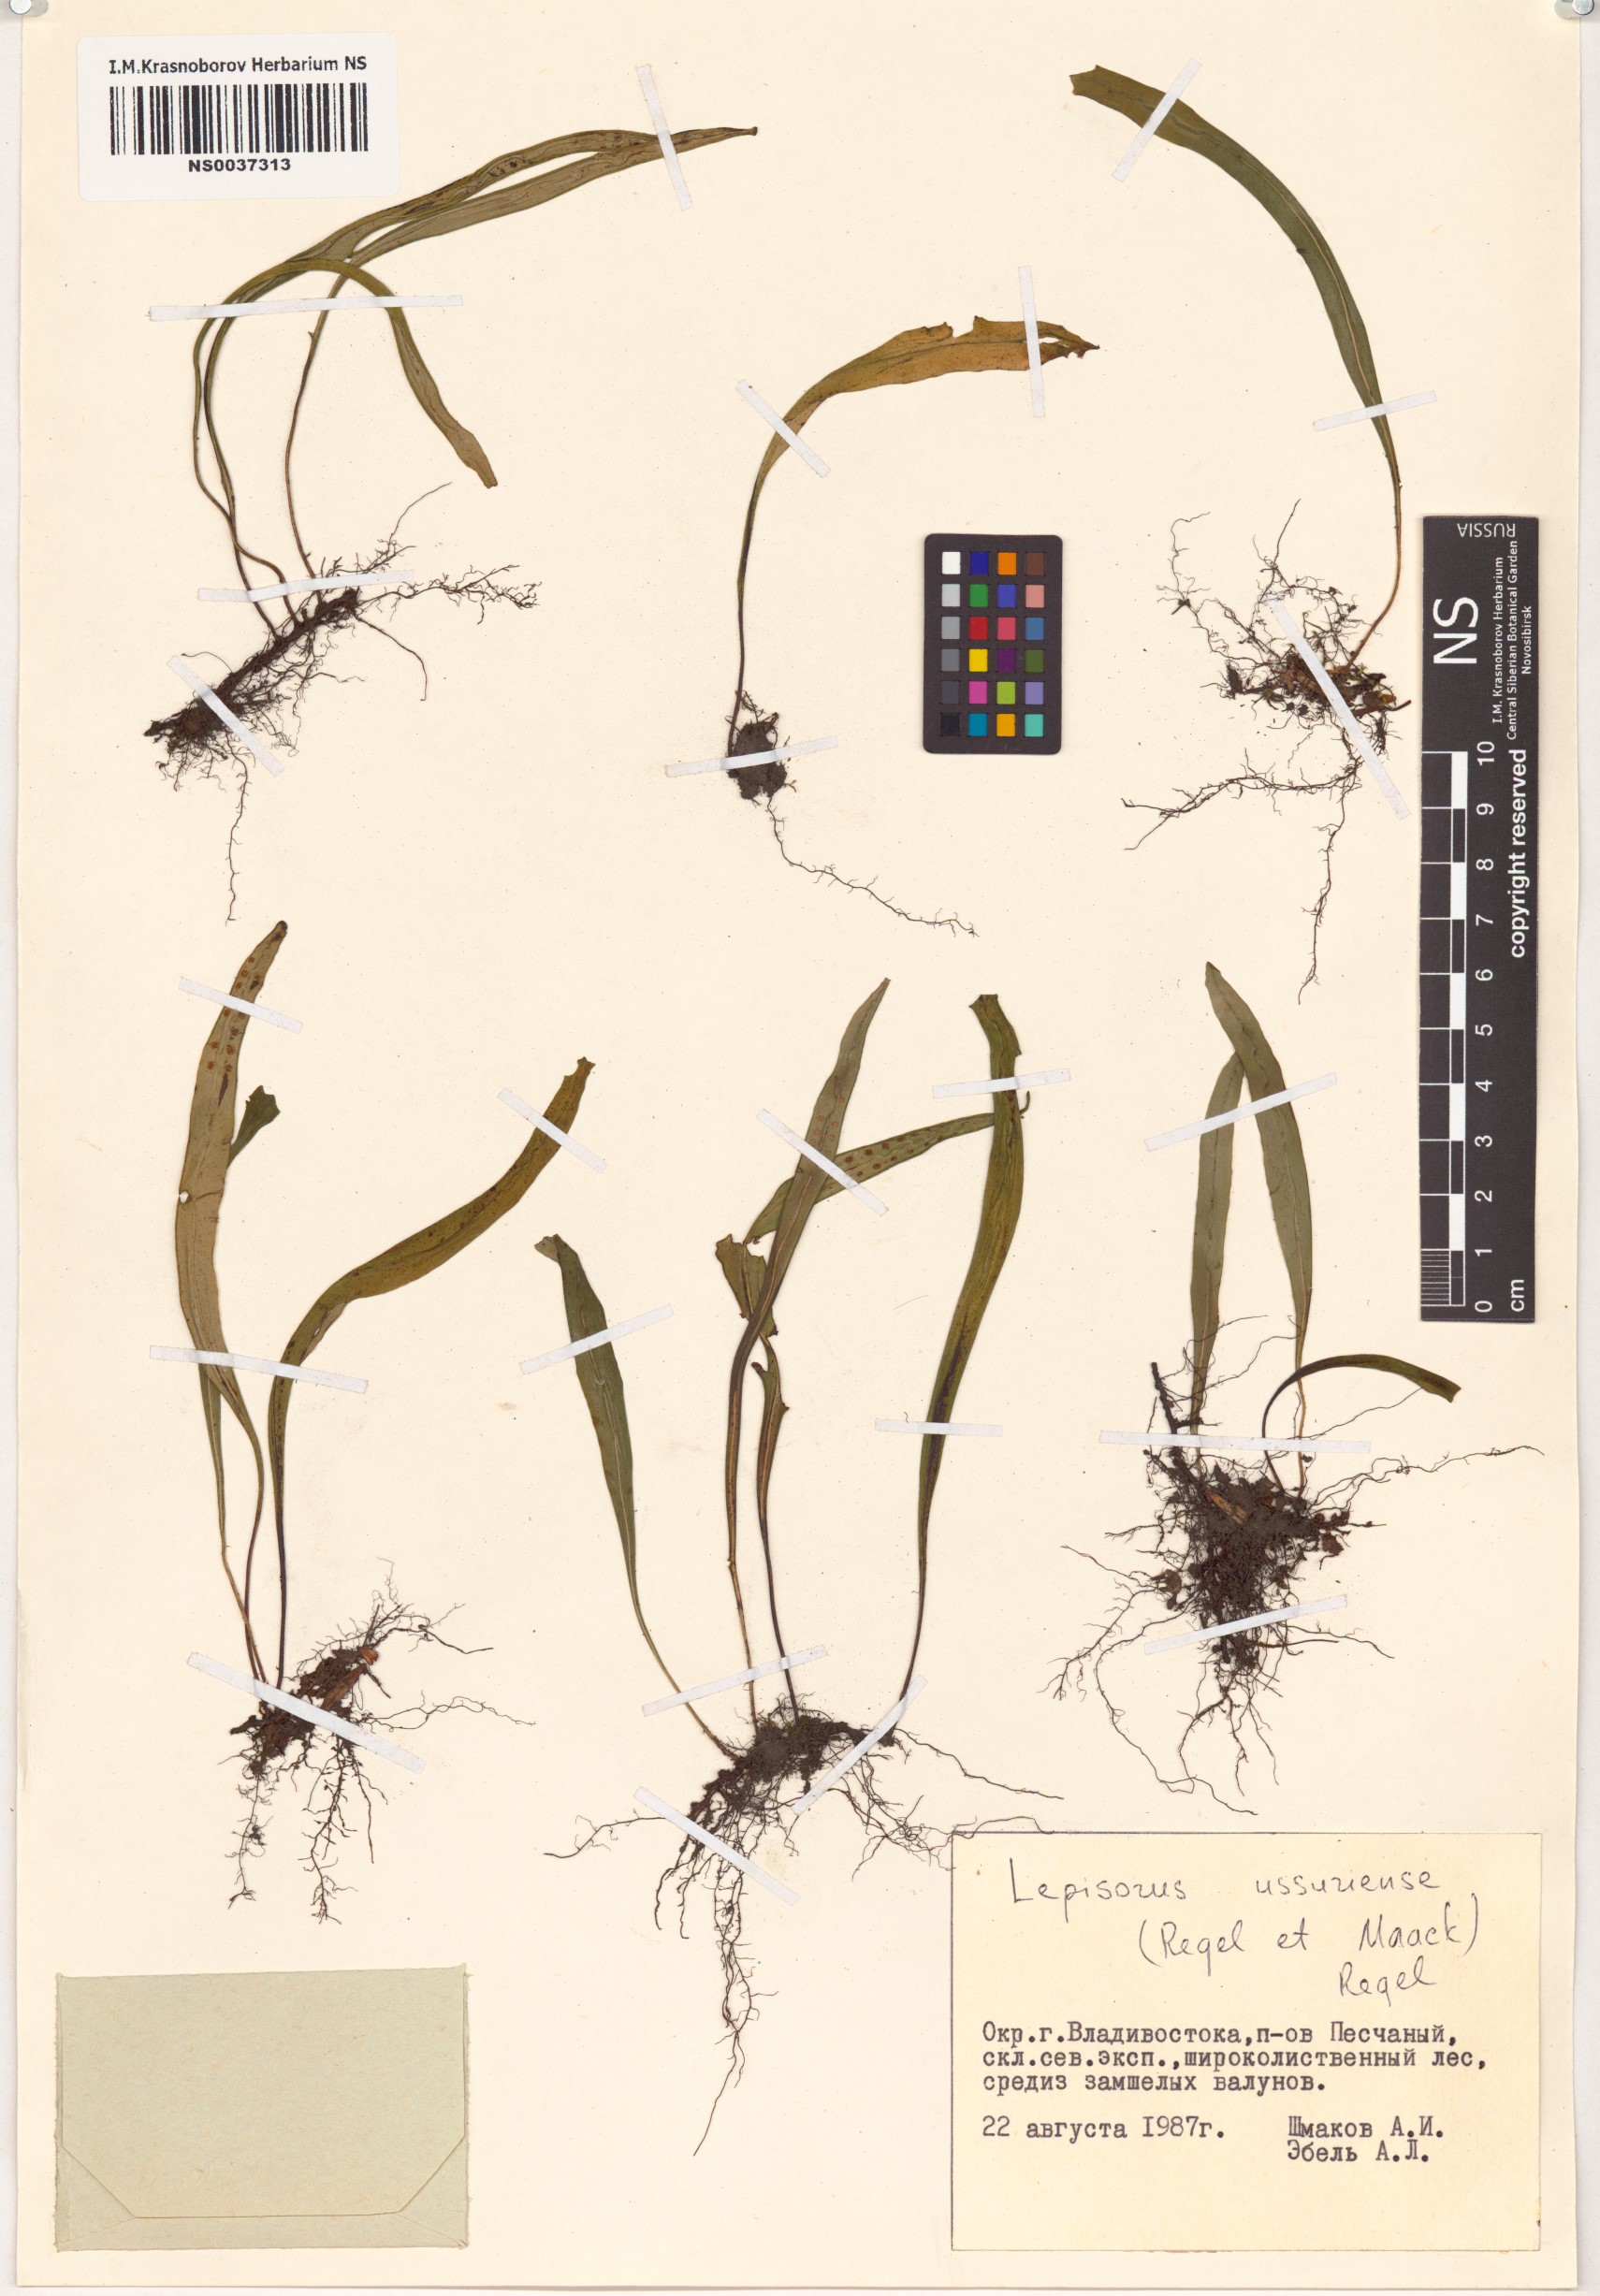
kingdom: Plantae
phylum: Tracheophyta
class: Polypodiopsida
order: Polypodiales
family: Polypodiaceae
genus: Lepisorus
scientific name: Lepisorus ussuriensis
